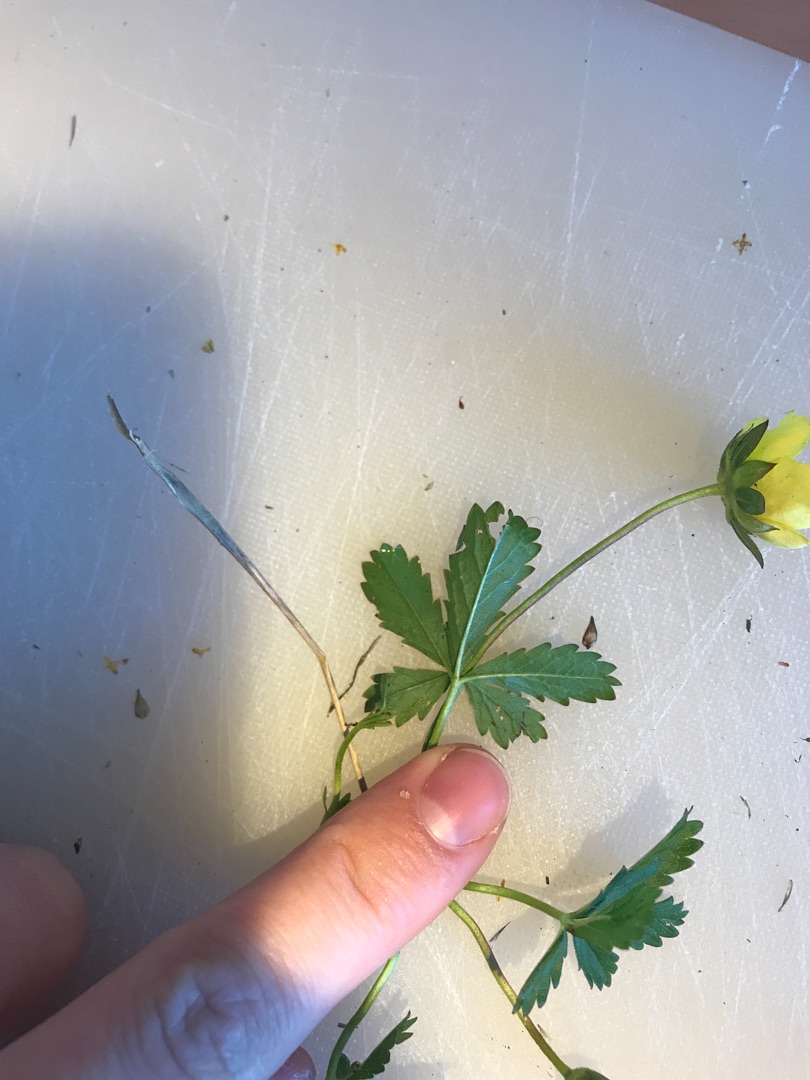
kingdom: Plantae
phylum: Tracheophyta
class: Magnoliopsida
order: Rosales
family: Rosaceae
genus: Potentilla
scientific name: Potentilla reptans
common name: Krybende potentil
